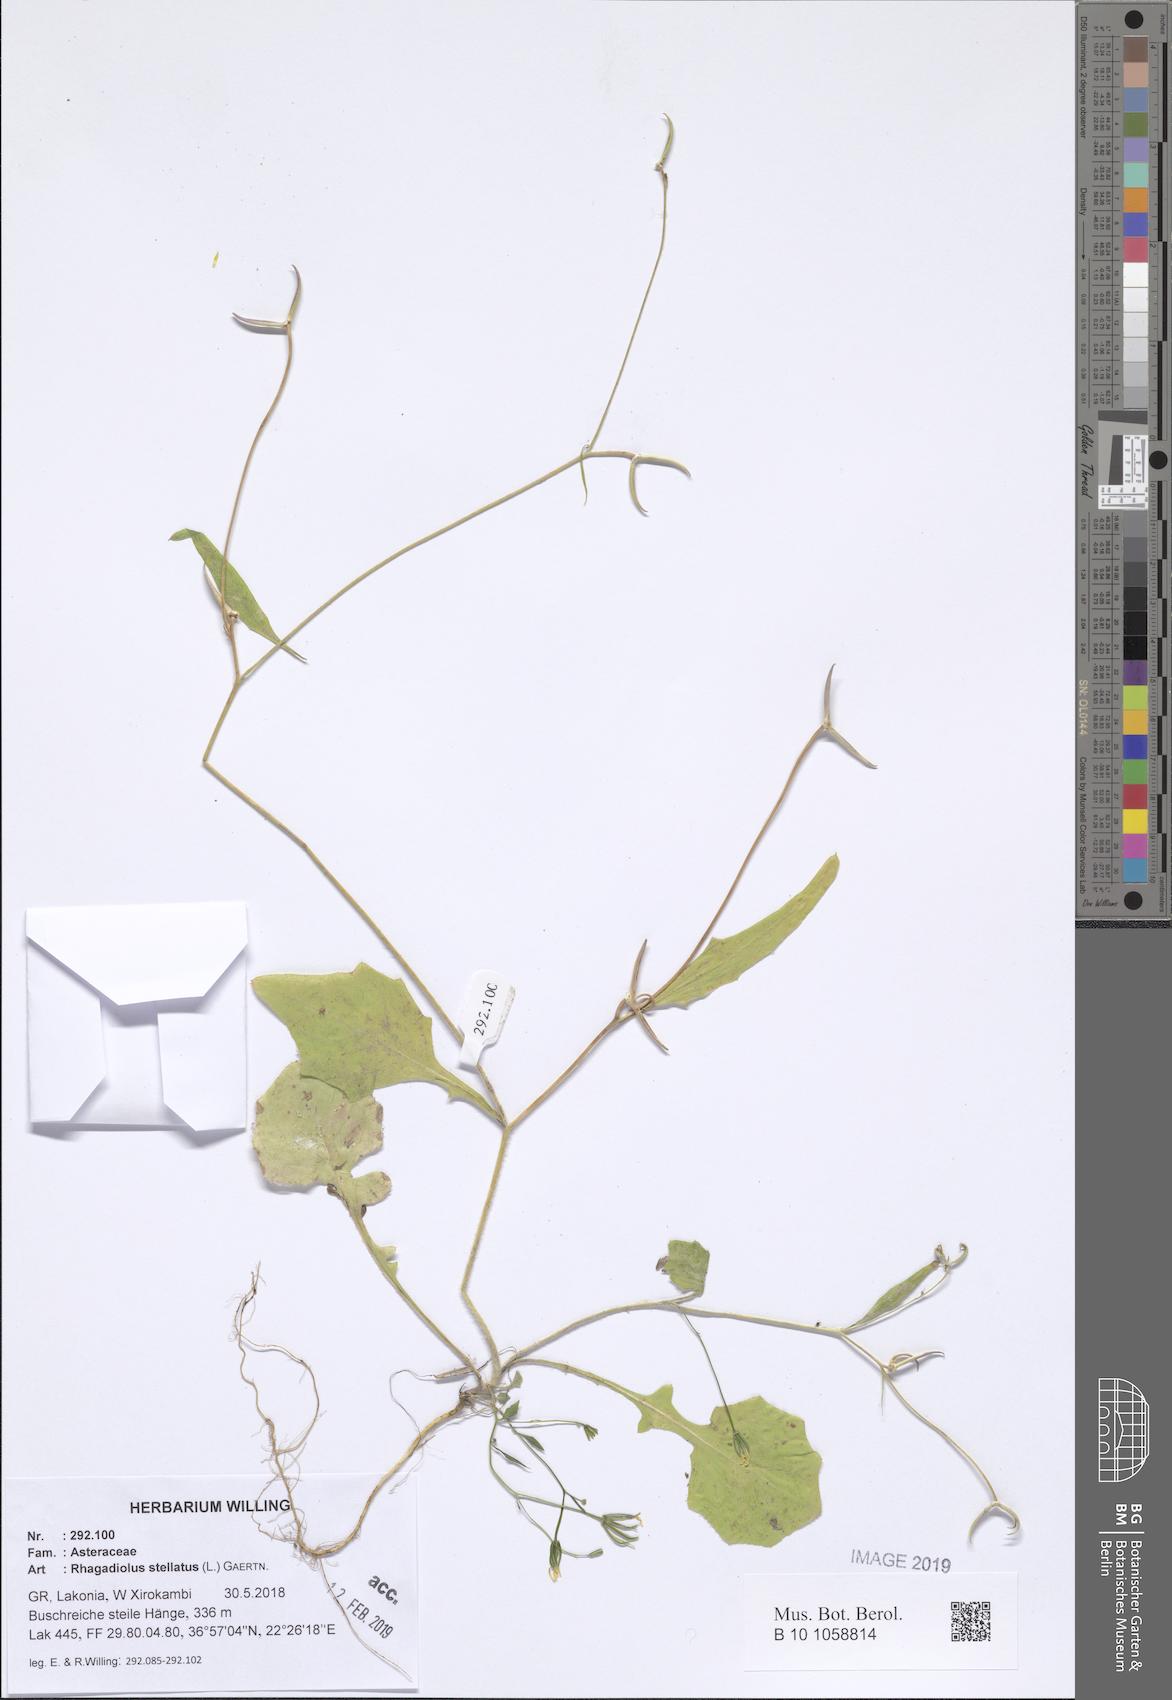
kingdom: Plantae
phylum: Tracheophyta
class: Magnoliopsida
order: Asterales
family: Asteraceae
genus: Rhagadiolus
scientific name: Rhagadiolus stellatus
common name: Star hawkbit
